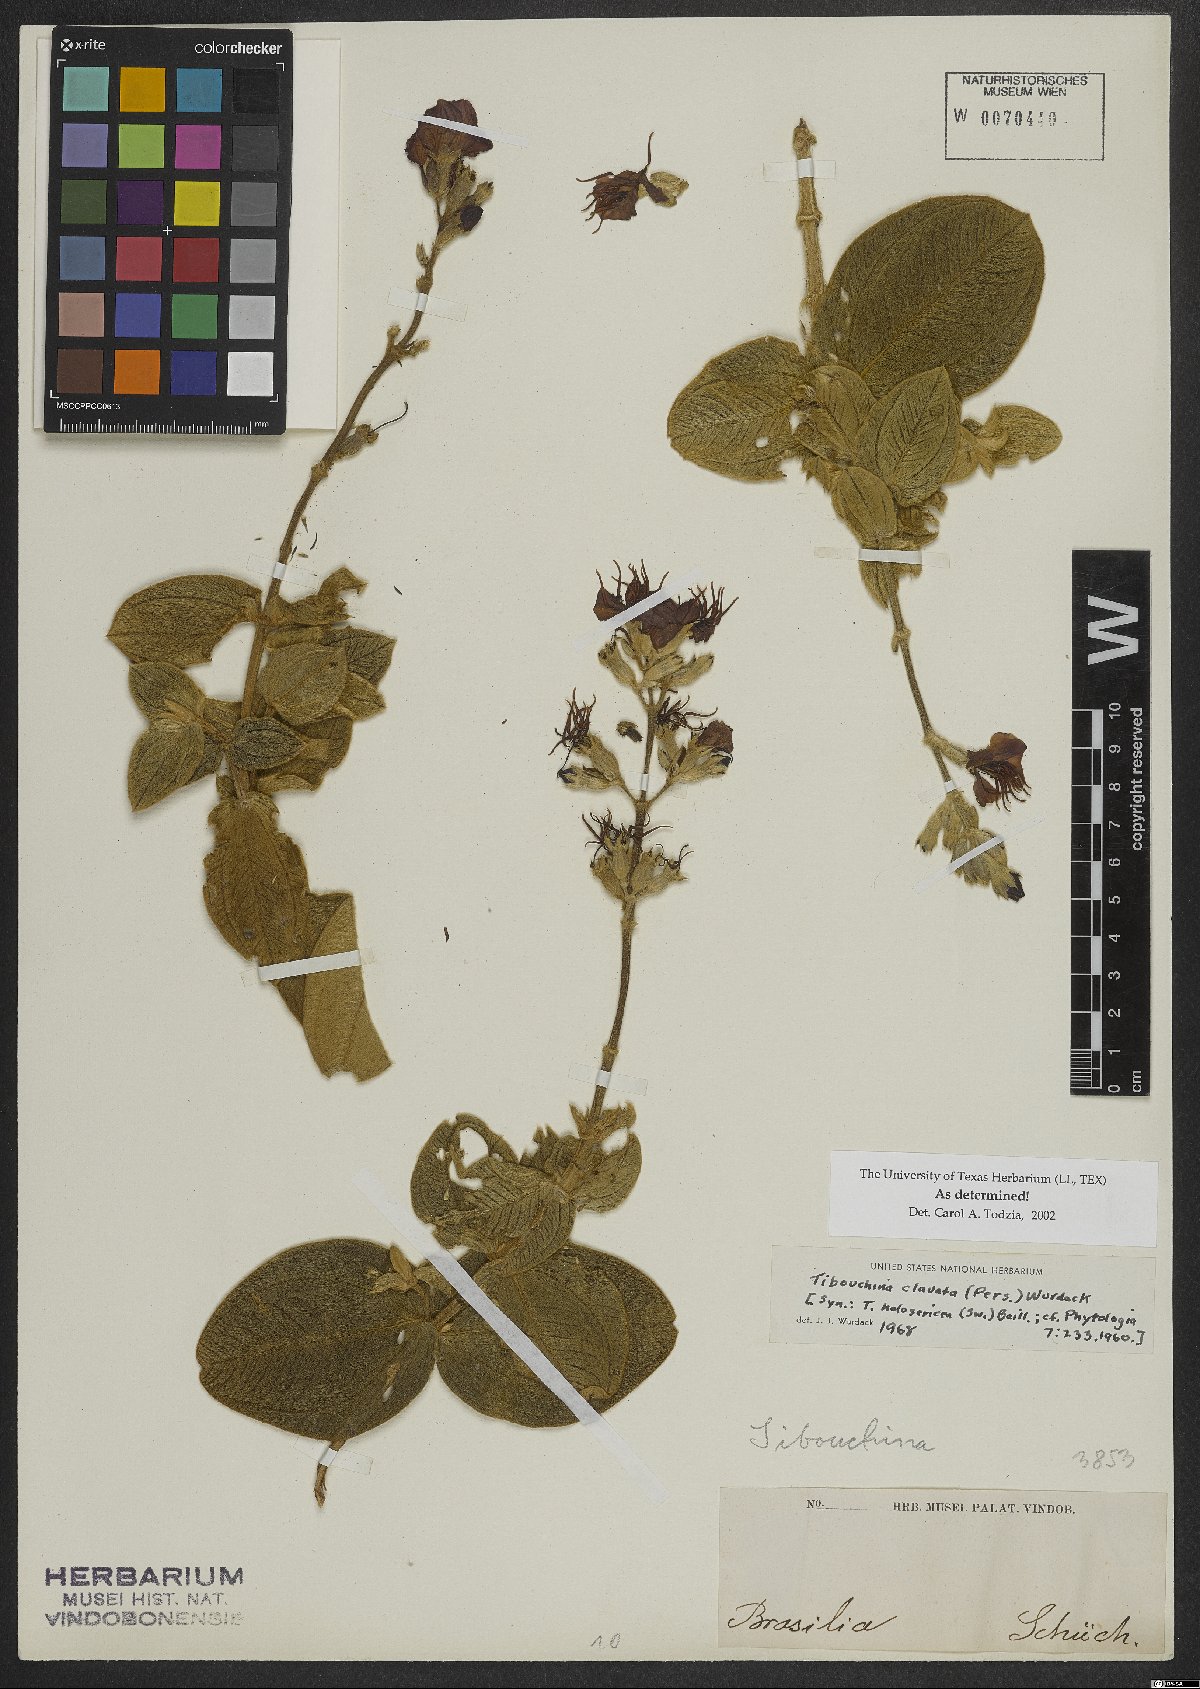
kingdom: Plantae
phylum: Tracheophyta
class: Magnoliopsida
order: Myrtales
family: Melastomataceae
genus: Pleroma
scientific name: Pleroma clavatum
